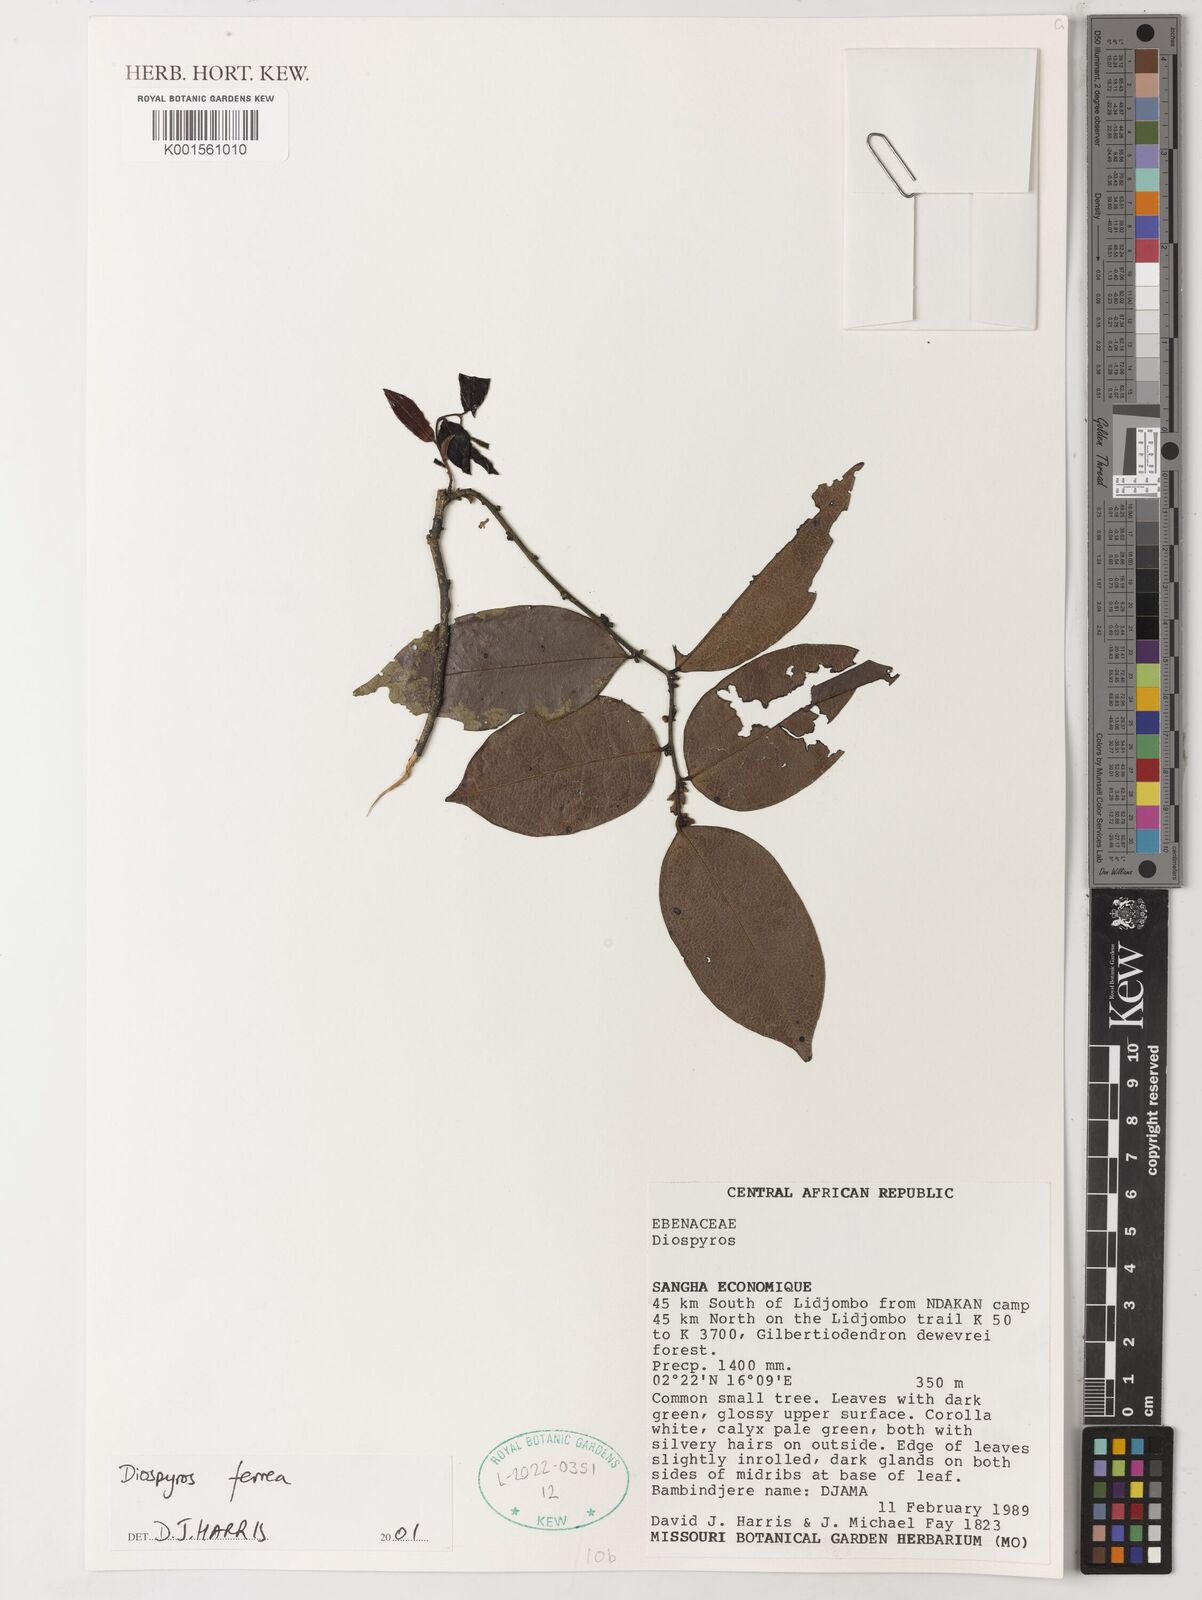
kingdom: Plantae
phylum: Tracheophyta
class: Magnoliopsida
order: Ericales
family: Ebenaceae
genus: Diospyros
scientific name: Diospyros ferrea
